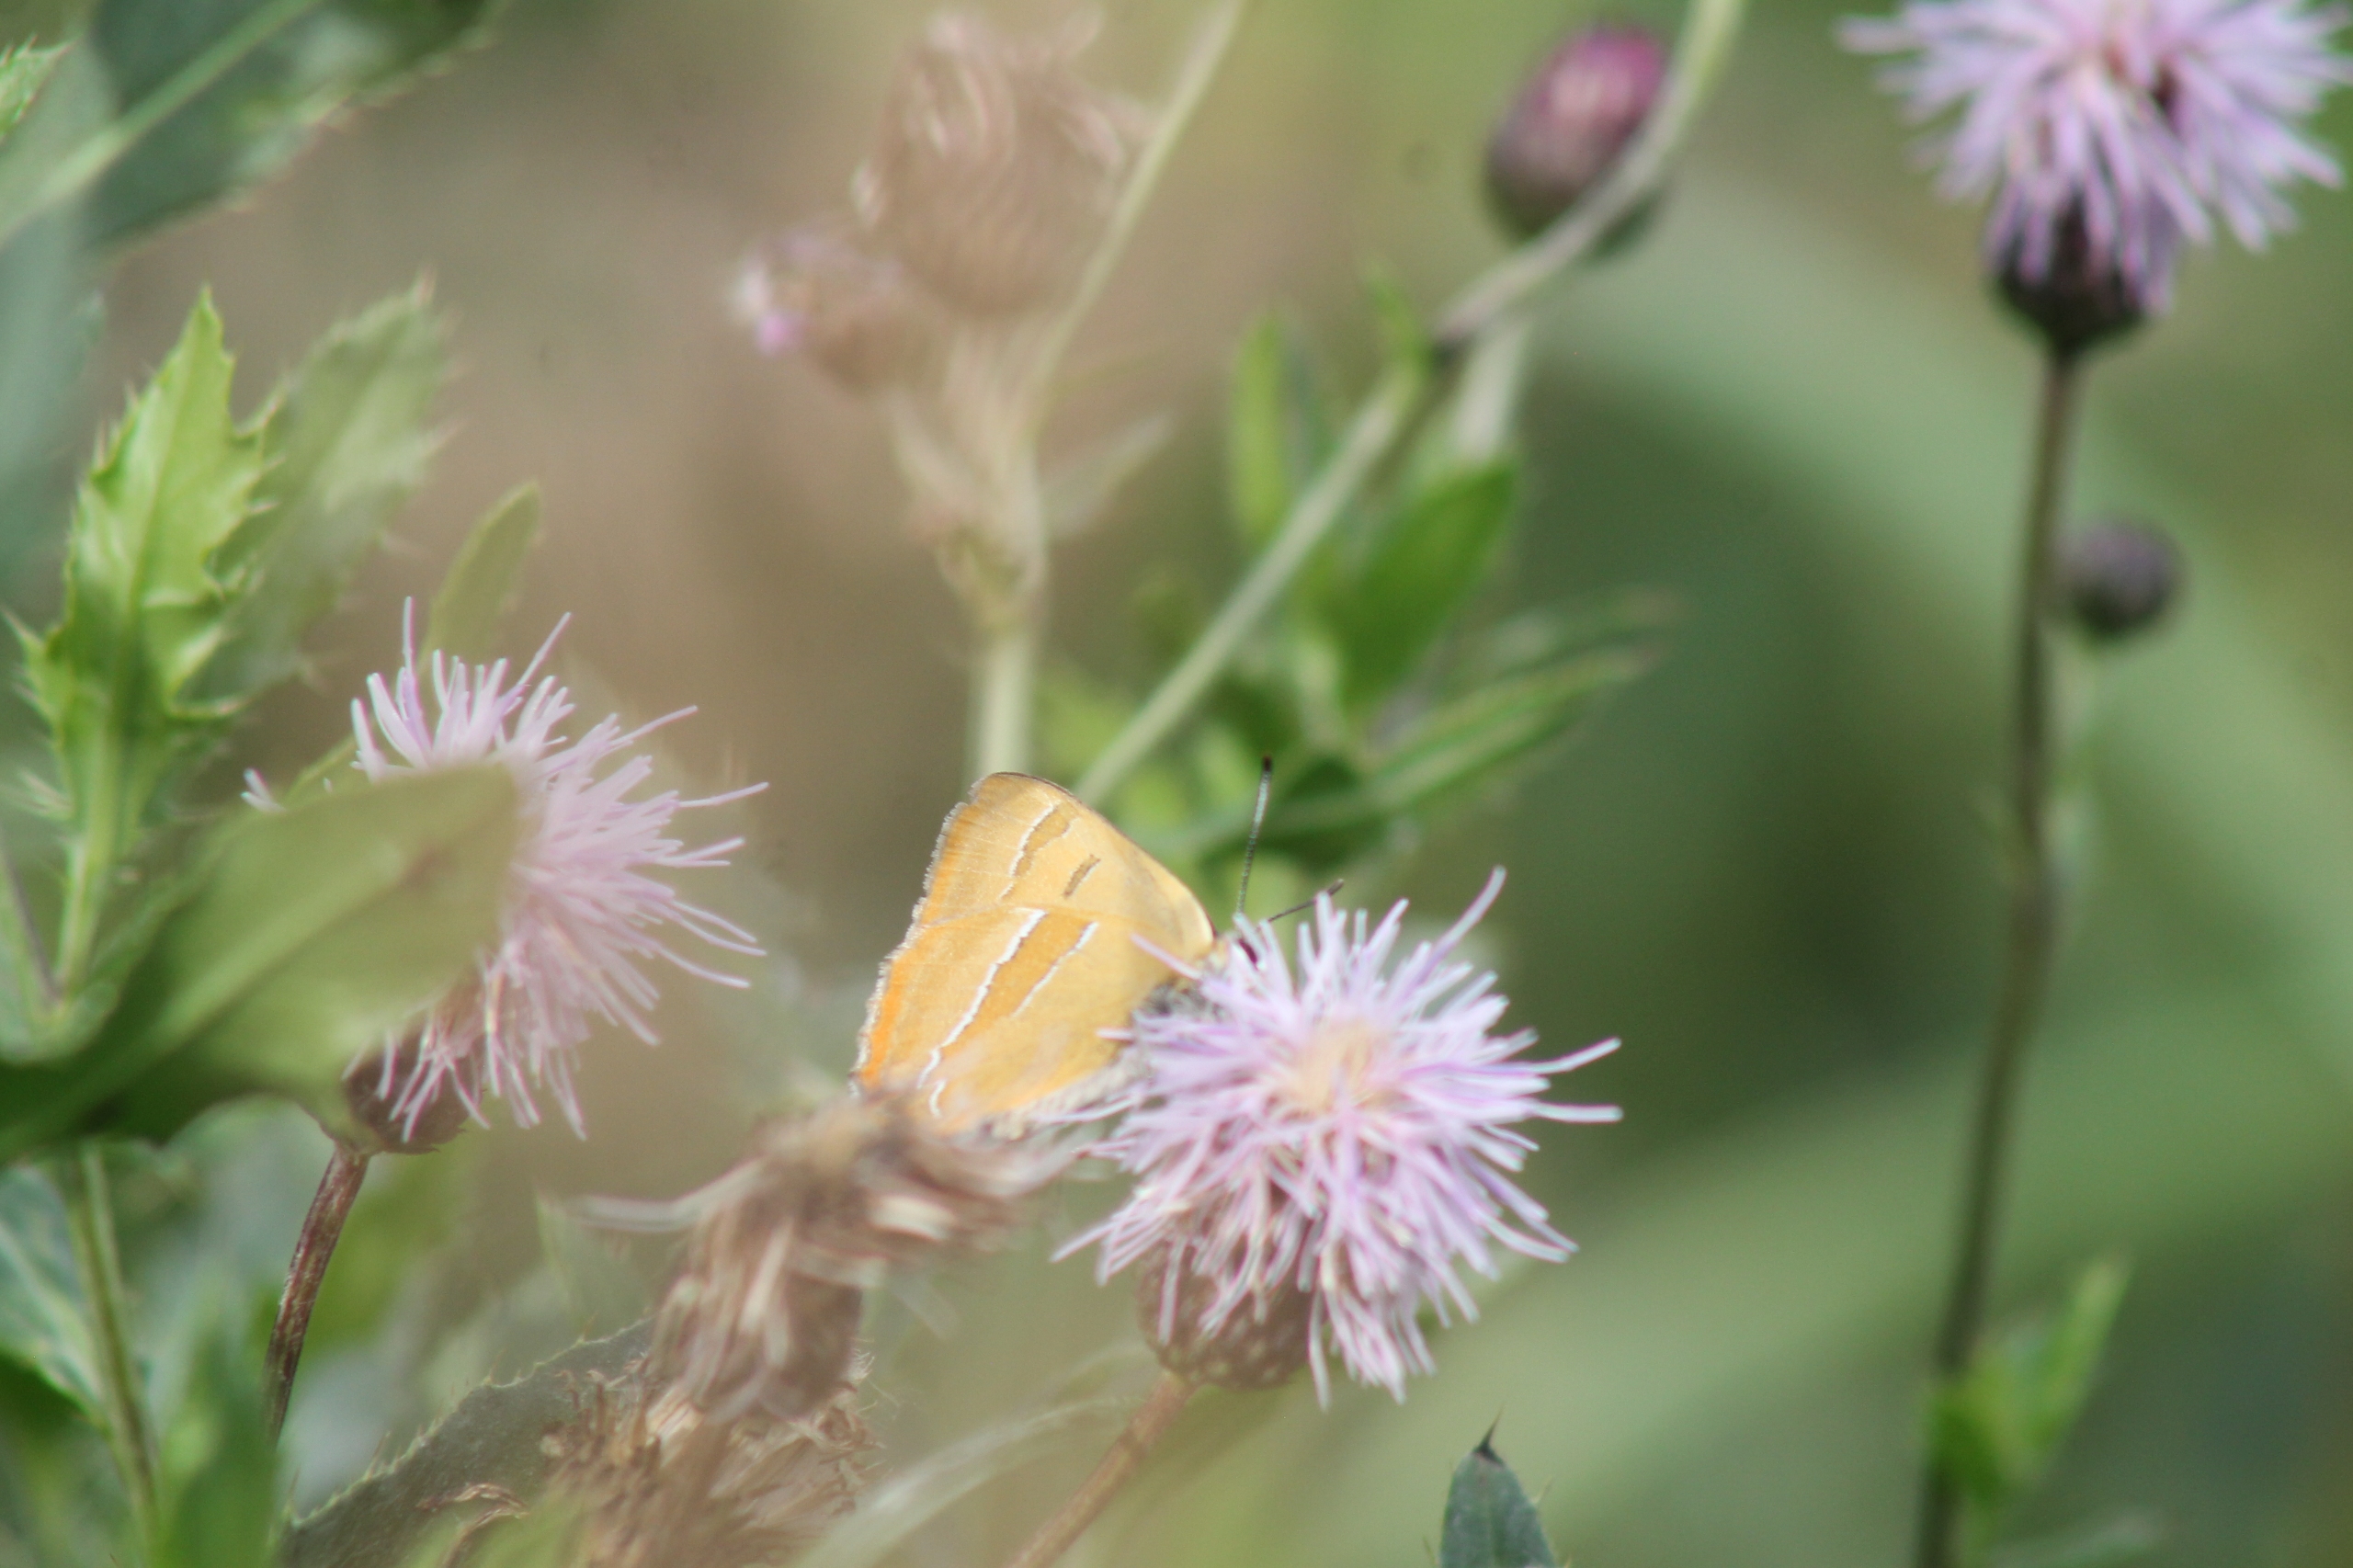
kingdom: Animalia
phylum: Arthropoda
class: Insecta
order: Lepidoptera
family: Lycaenidae
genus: Thecla
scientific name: Thecla betulae
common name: Guldhale
